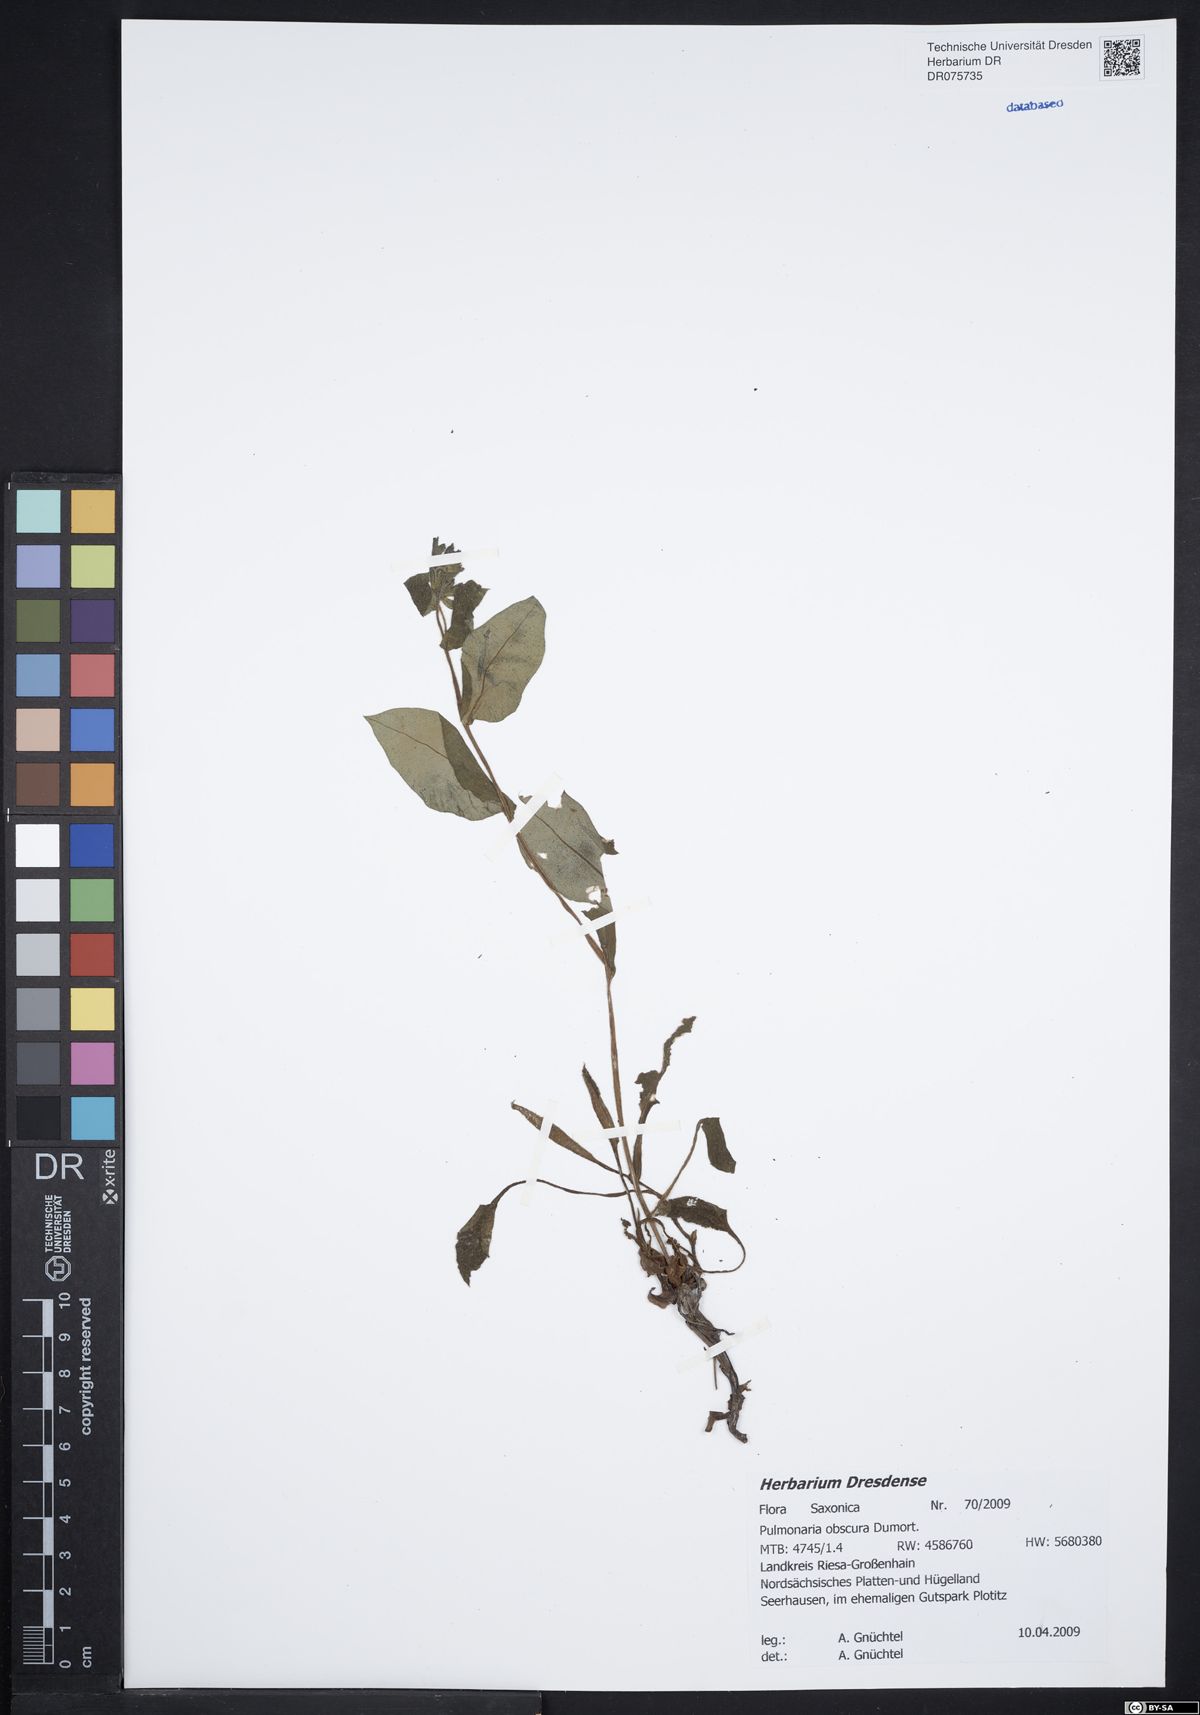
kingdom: Plantae
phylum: Tracheophyta
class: Magnoliopsida
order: Boraginales
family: Boraginaceae
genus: Pulmonaria
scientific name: Pulmonaria obscura
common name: Suffolk lungwort
